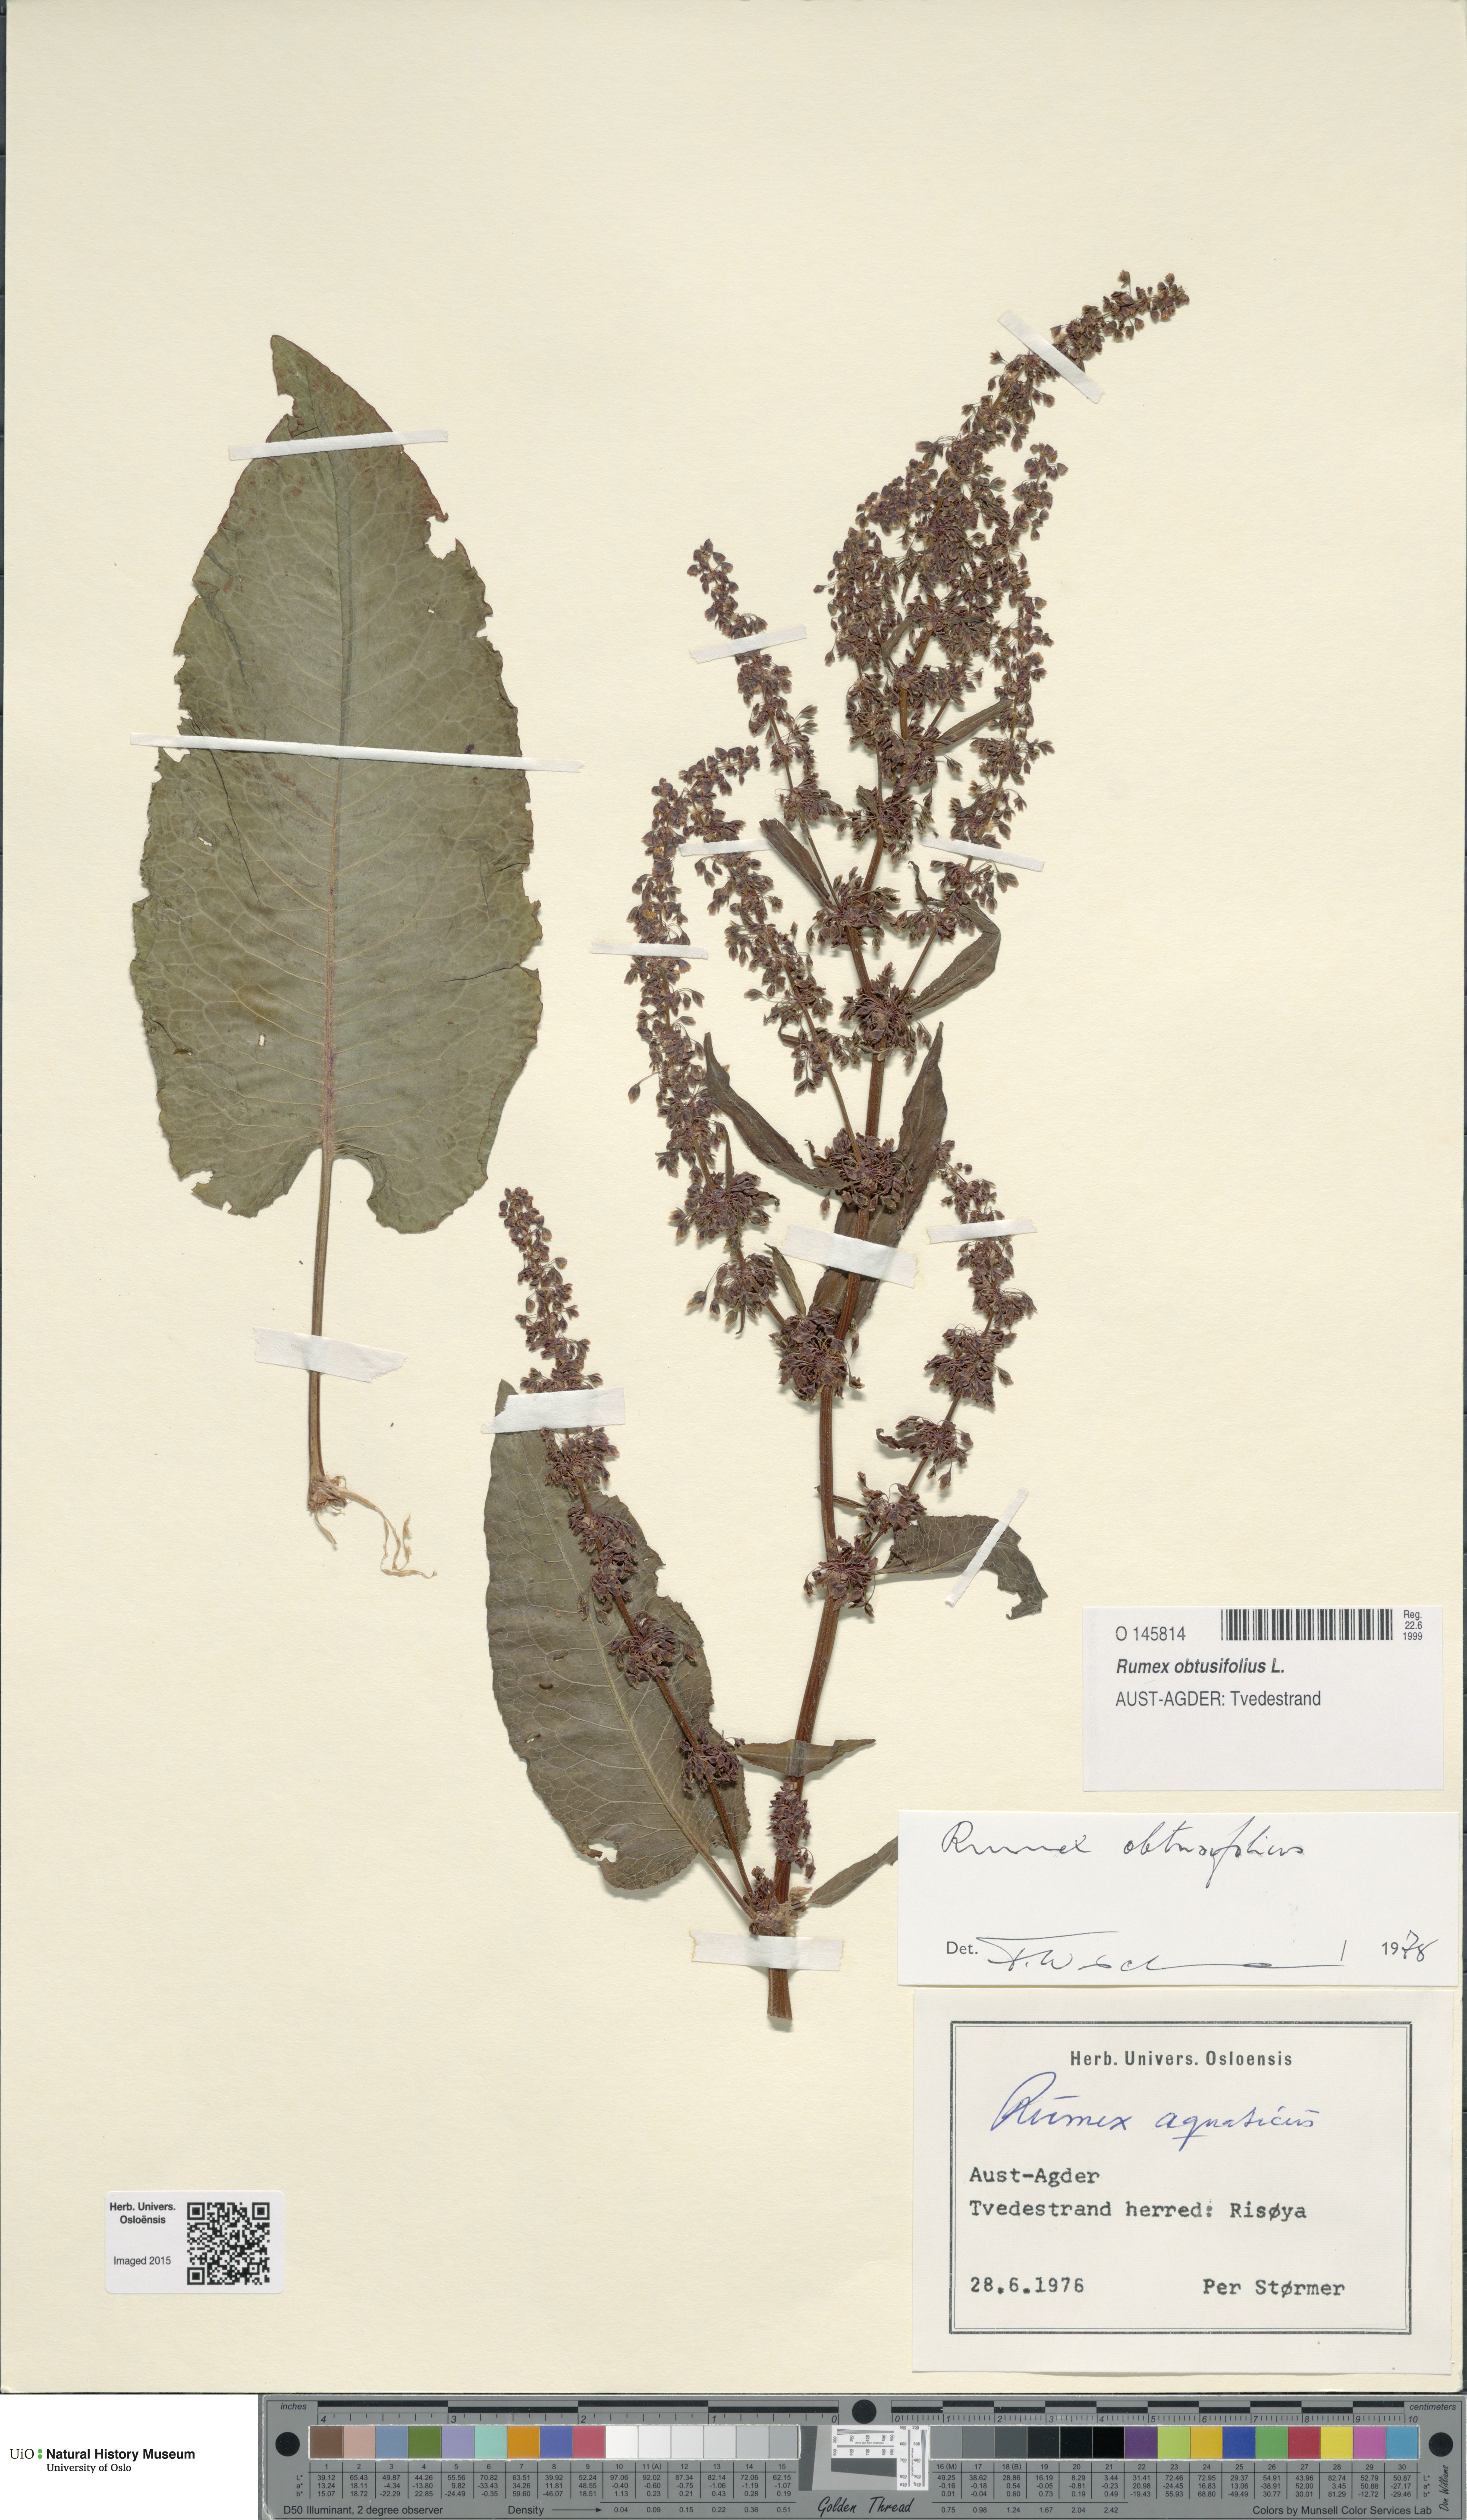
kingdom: Plantae
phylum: Tracheophyta
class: Magnoliopsida
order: Caryophyllales
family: Polygonaceae
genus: Rumex
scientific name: Rumex obtusifolius
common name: Bitter dock
